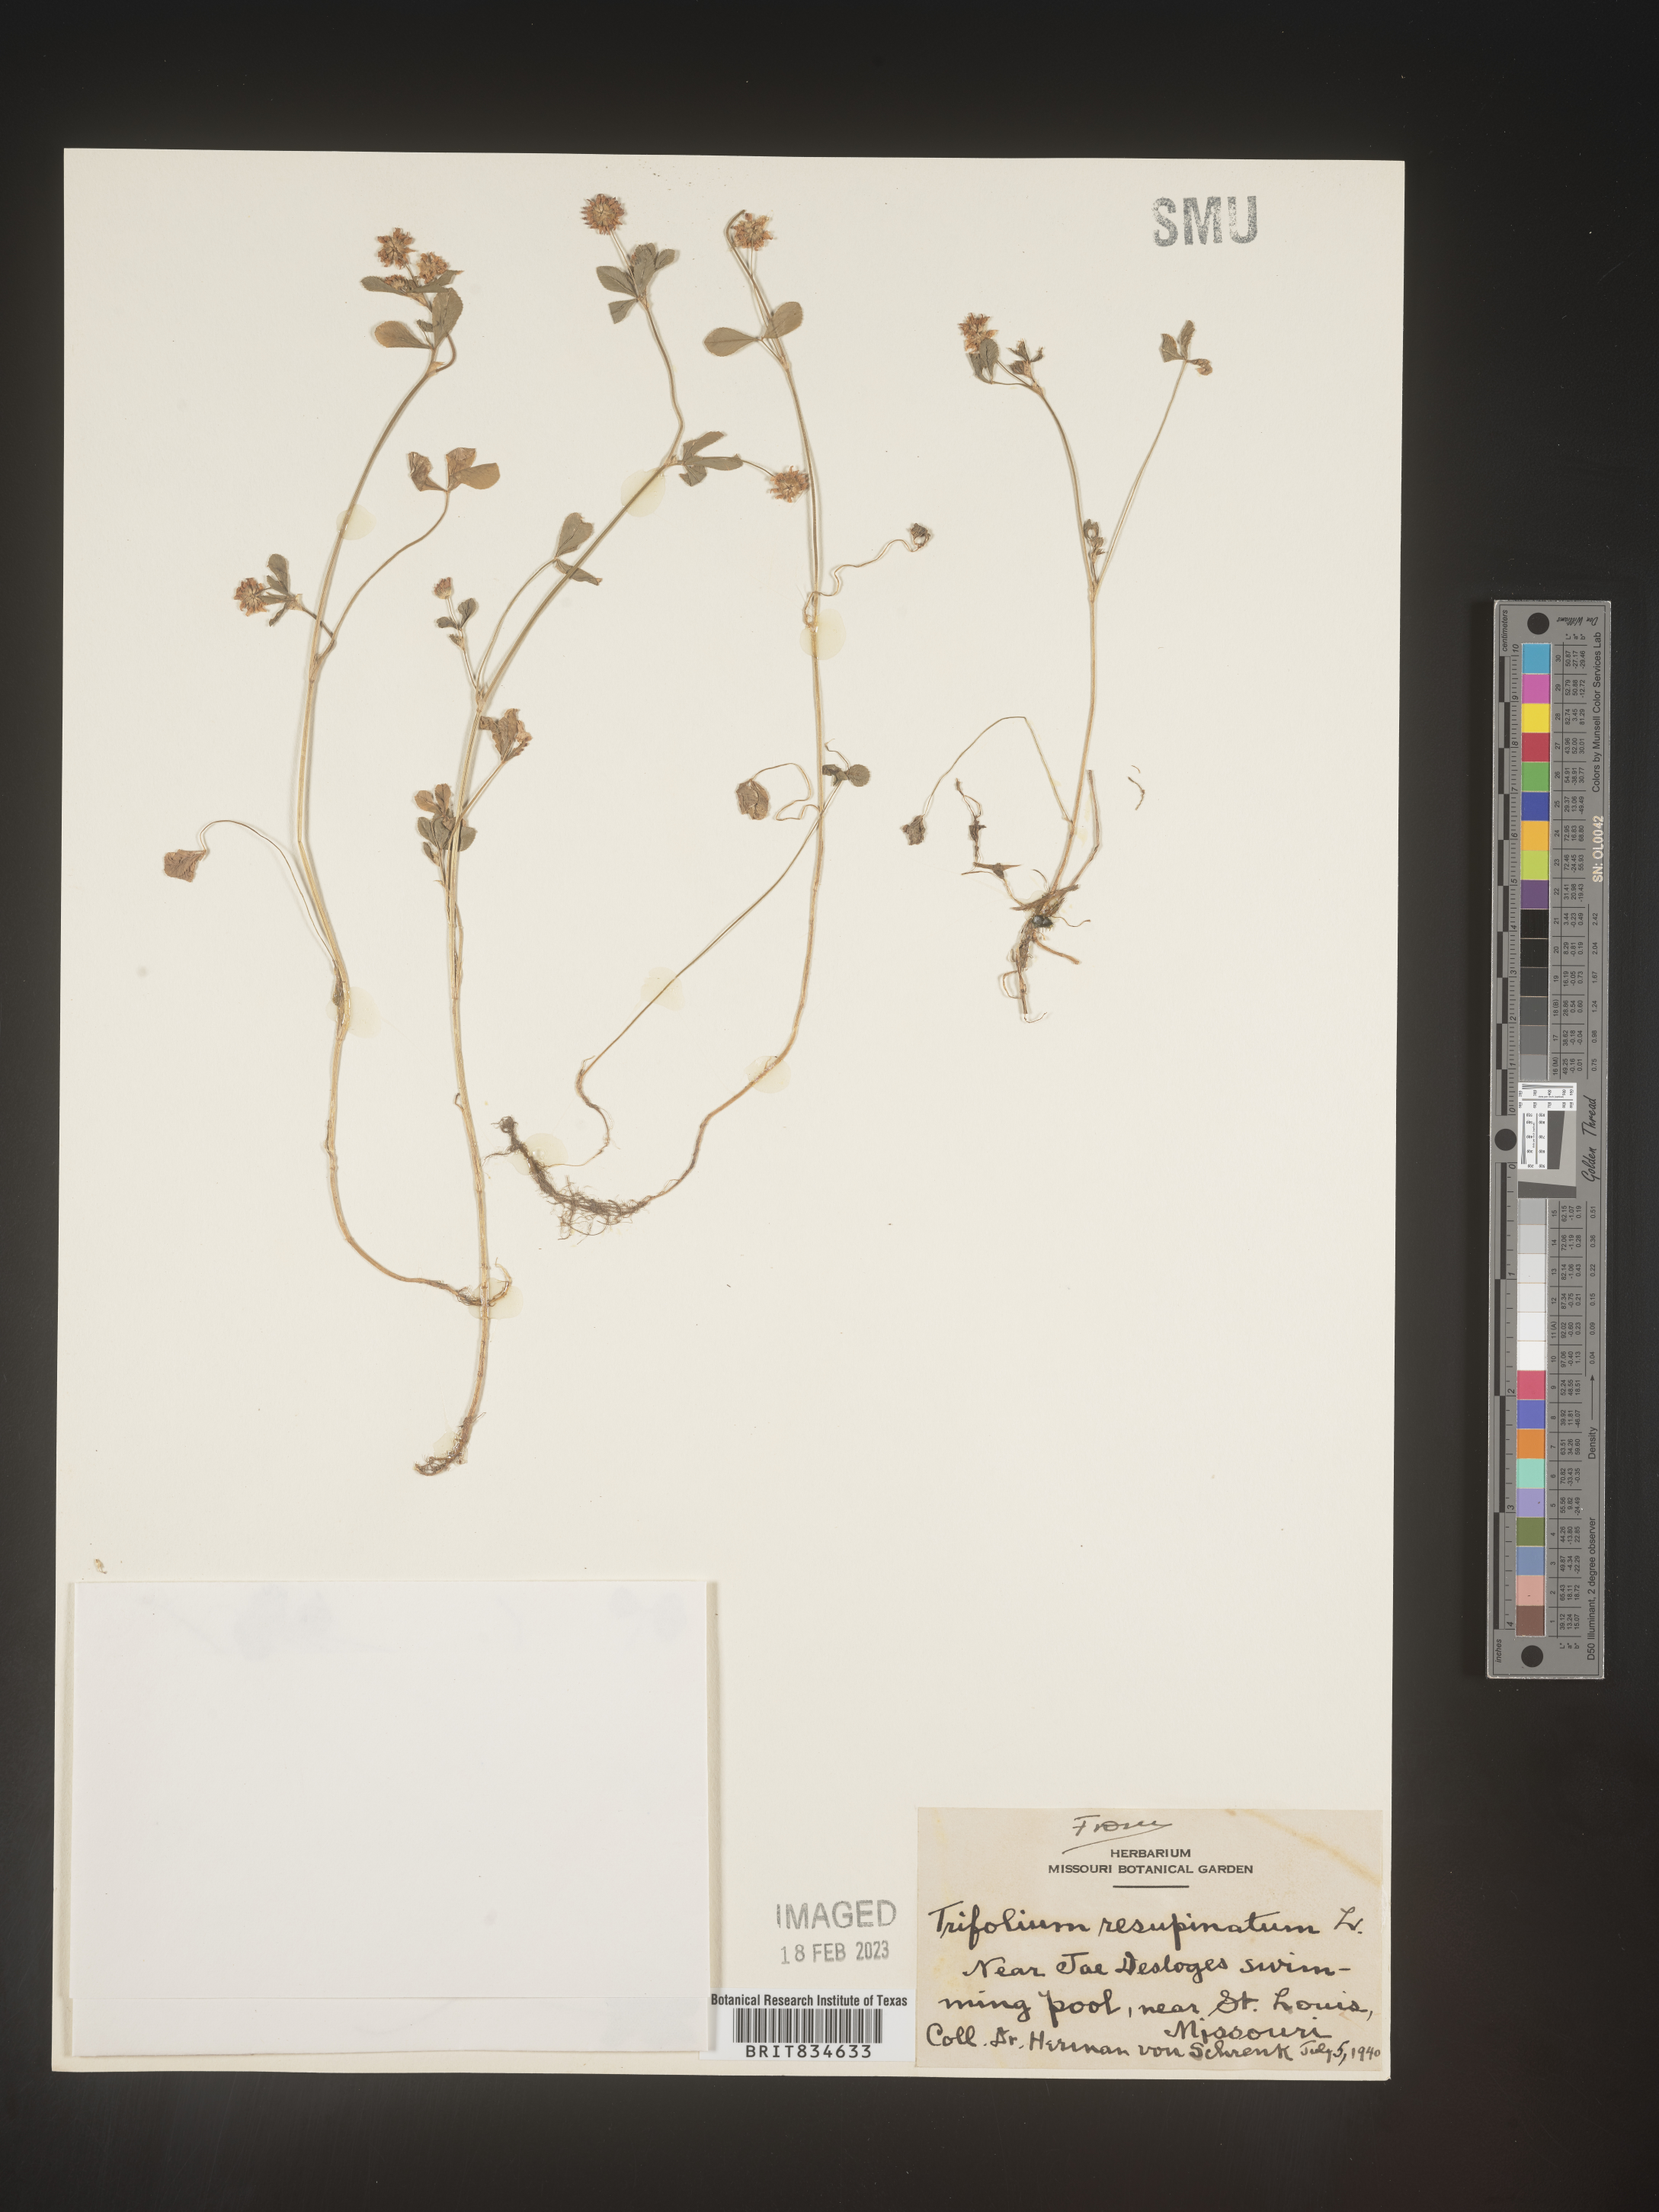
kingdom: Plantae
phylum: Tracheophyta
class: Magnoliopsida
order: Fabales
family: Fabaceae
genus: Trifolium
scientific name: Trifolium resupinatum
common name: Reversed clover
